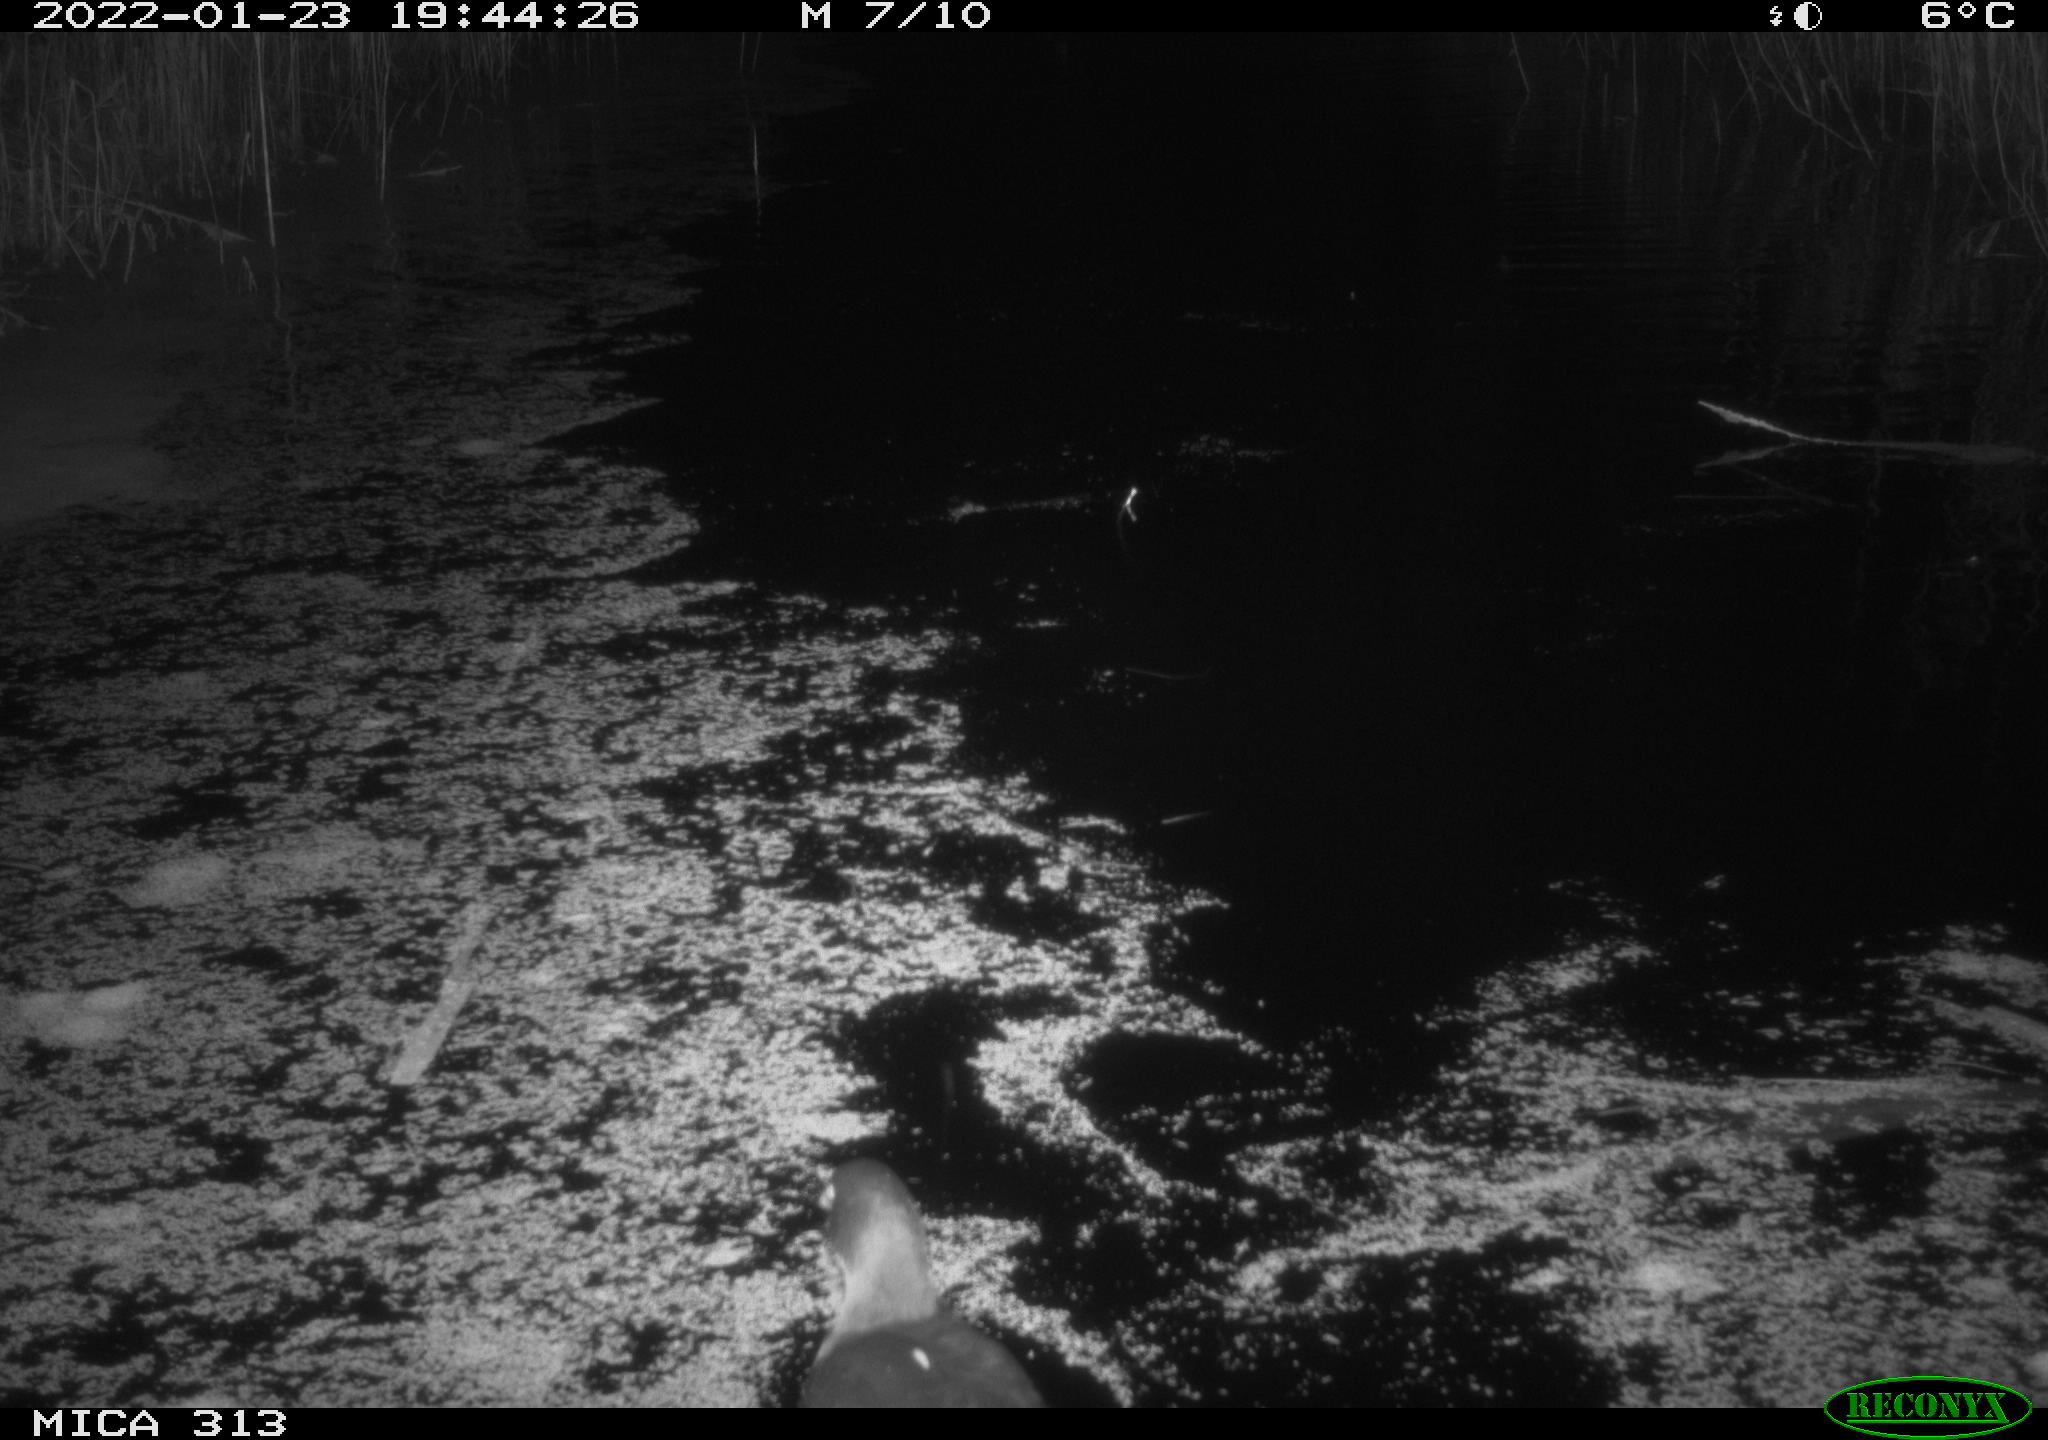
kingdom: Animalia
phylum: Chordata
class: Aves
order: Gruiformes
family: Rallidae
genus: Fulica
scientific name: Fulica atra
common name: Eurasian coot
